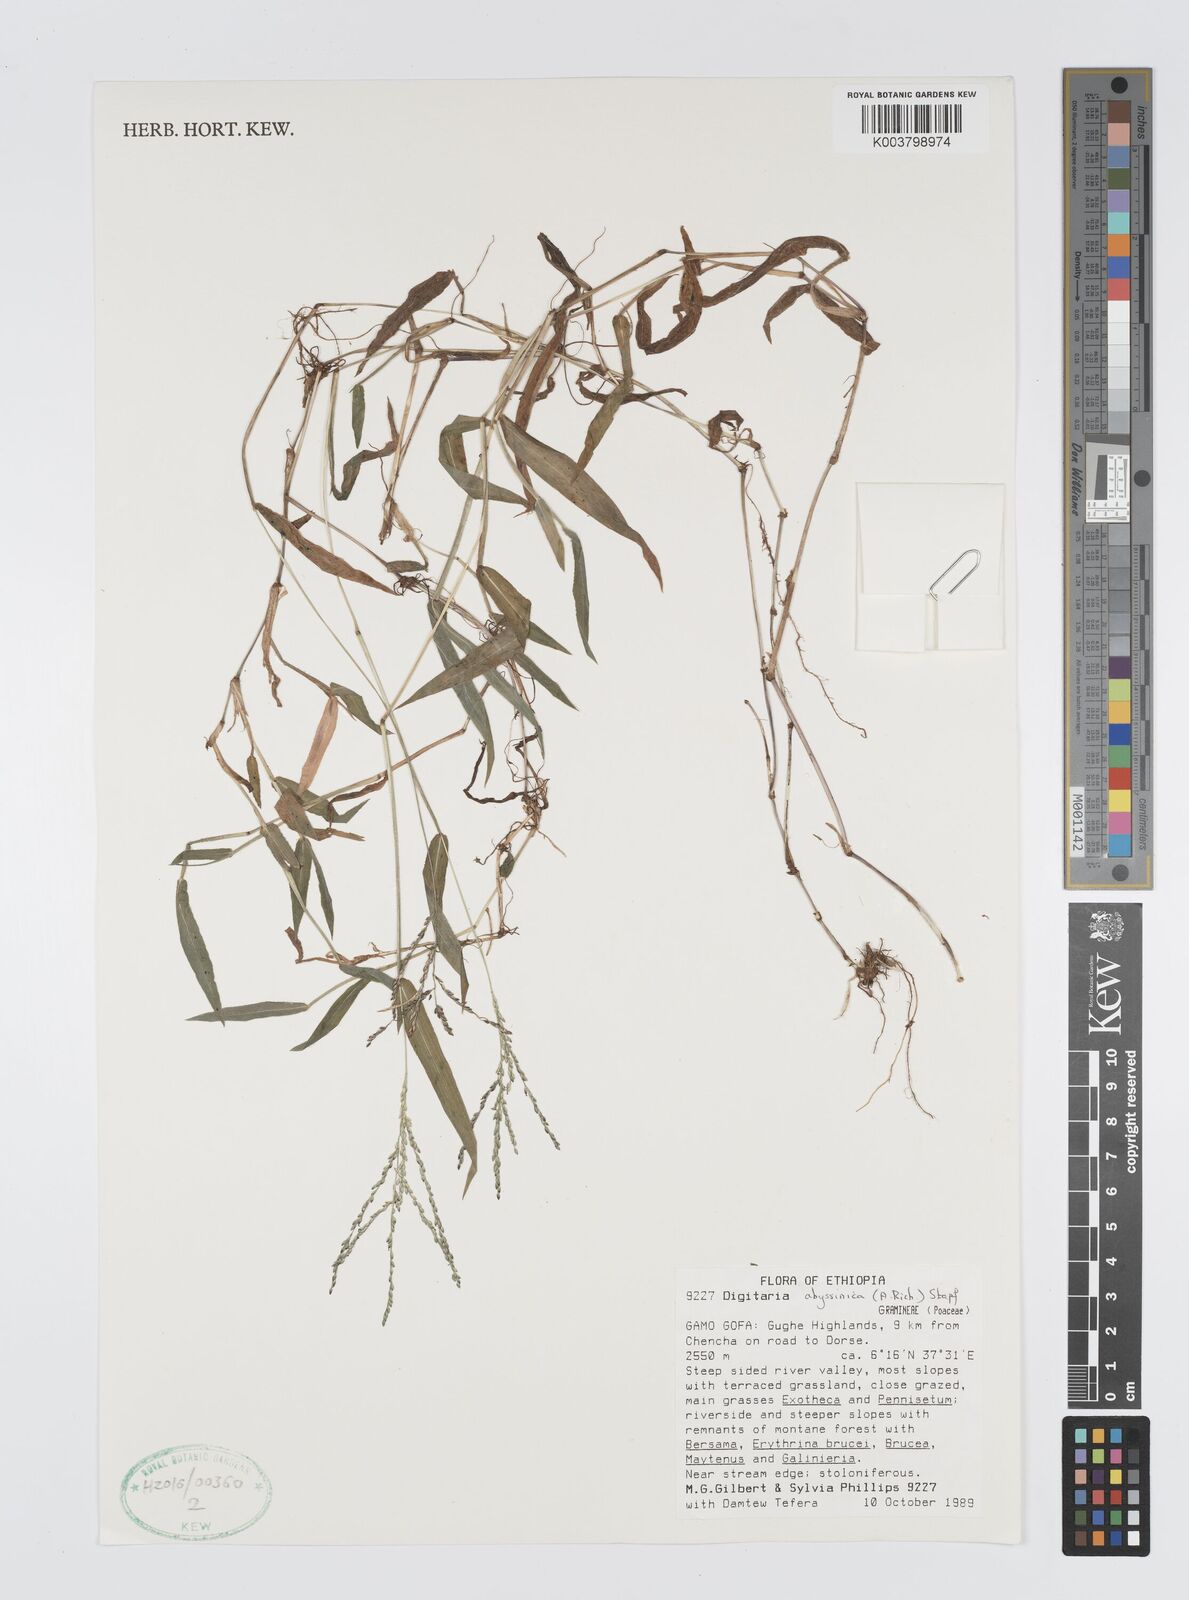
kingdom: Plantae
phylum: Tracheophyta
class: Liliopsida
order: Poales
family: Poaceae
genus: Digitaria
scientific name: Digitaria abyssinica
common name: African couchgrass
